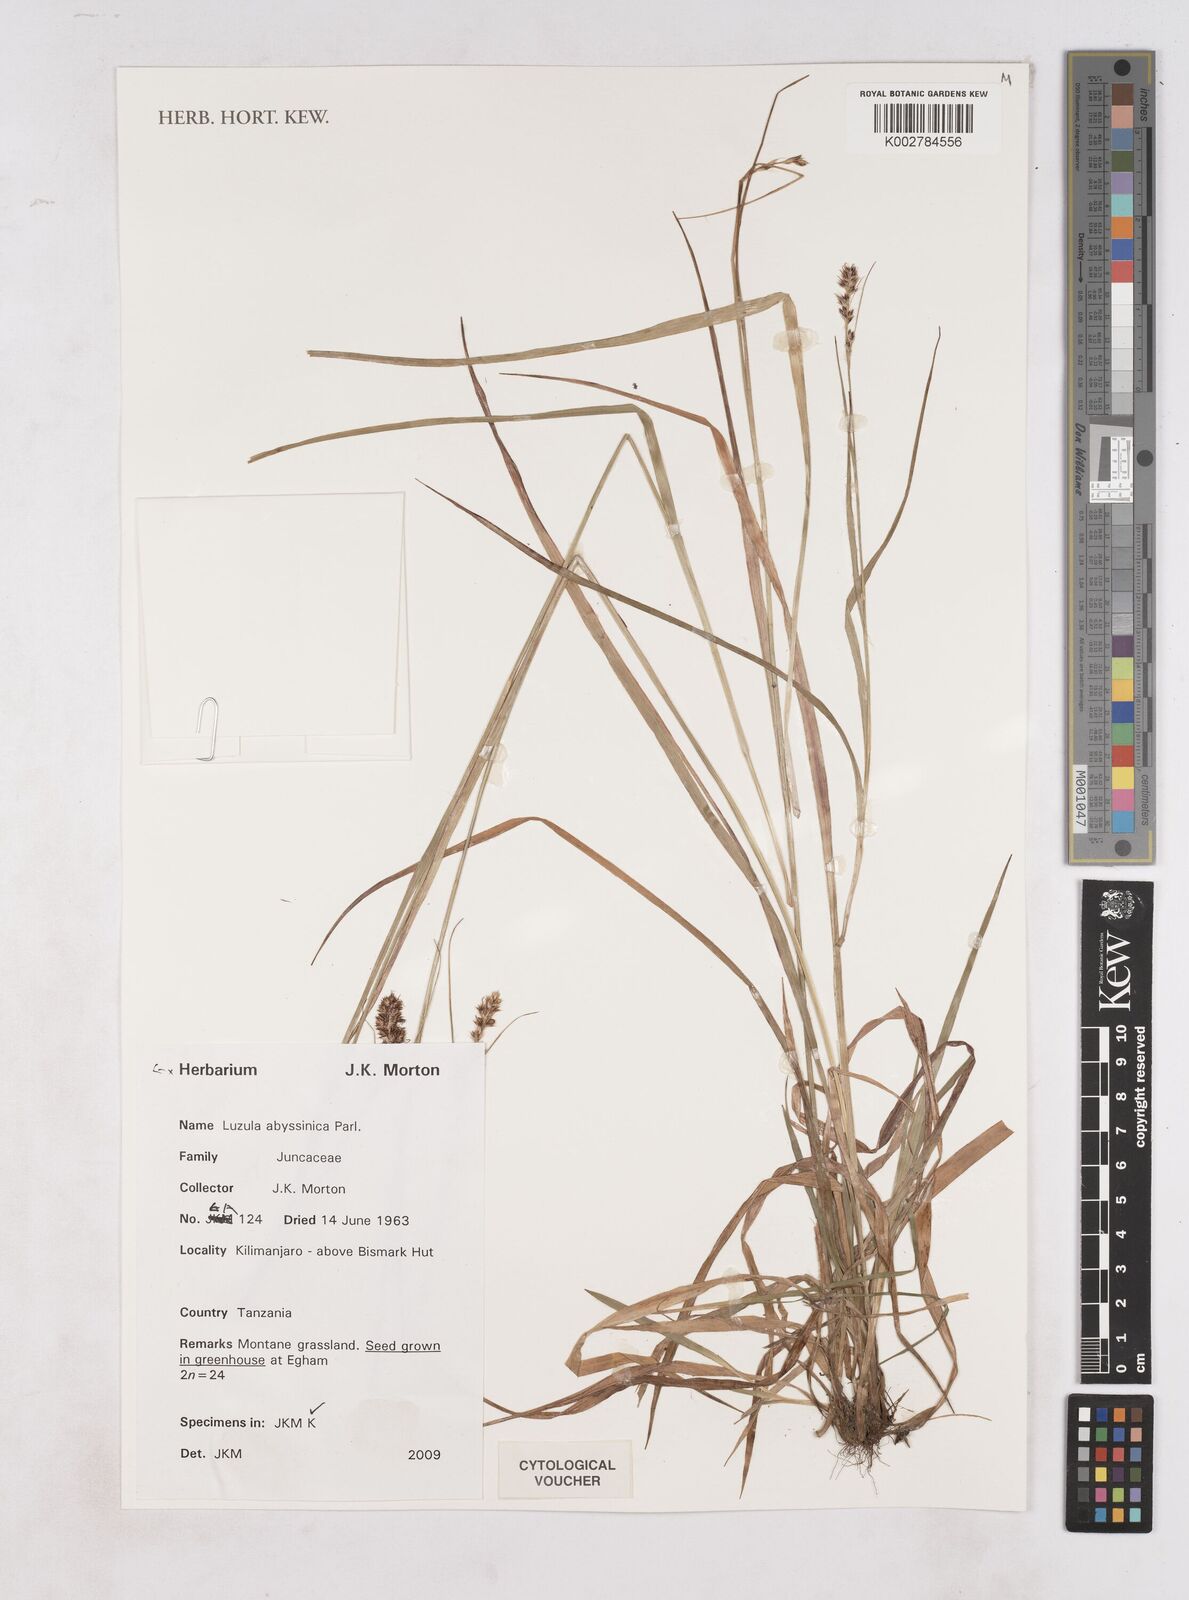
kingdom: Plantae
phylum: Tracheophyta
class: Liliopsida
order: Poales
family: Juncaceae
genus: Luzula
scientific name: Luzula abyssinica
